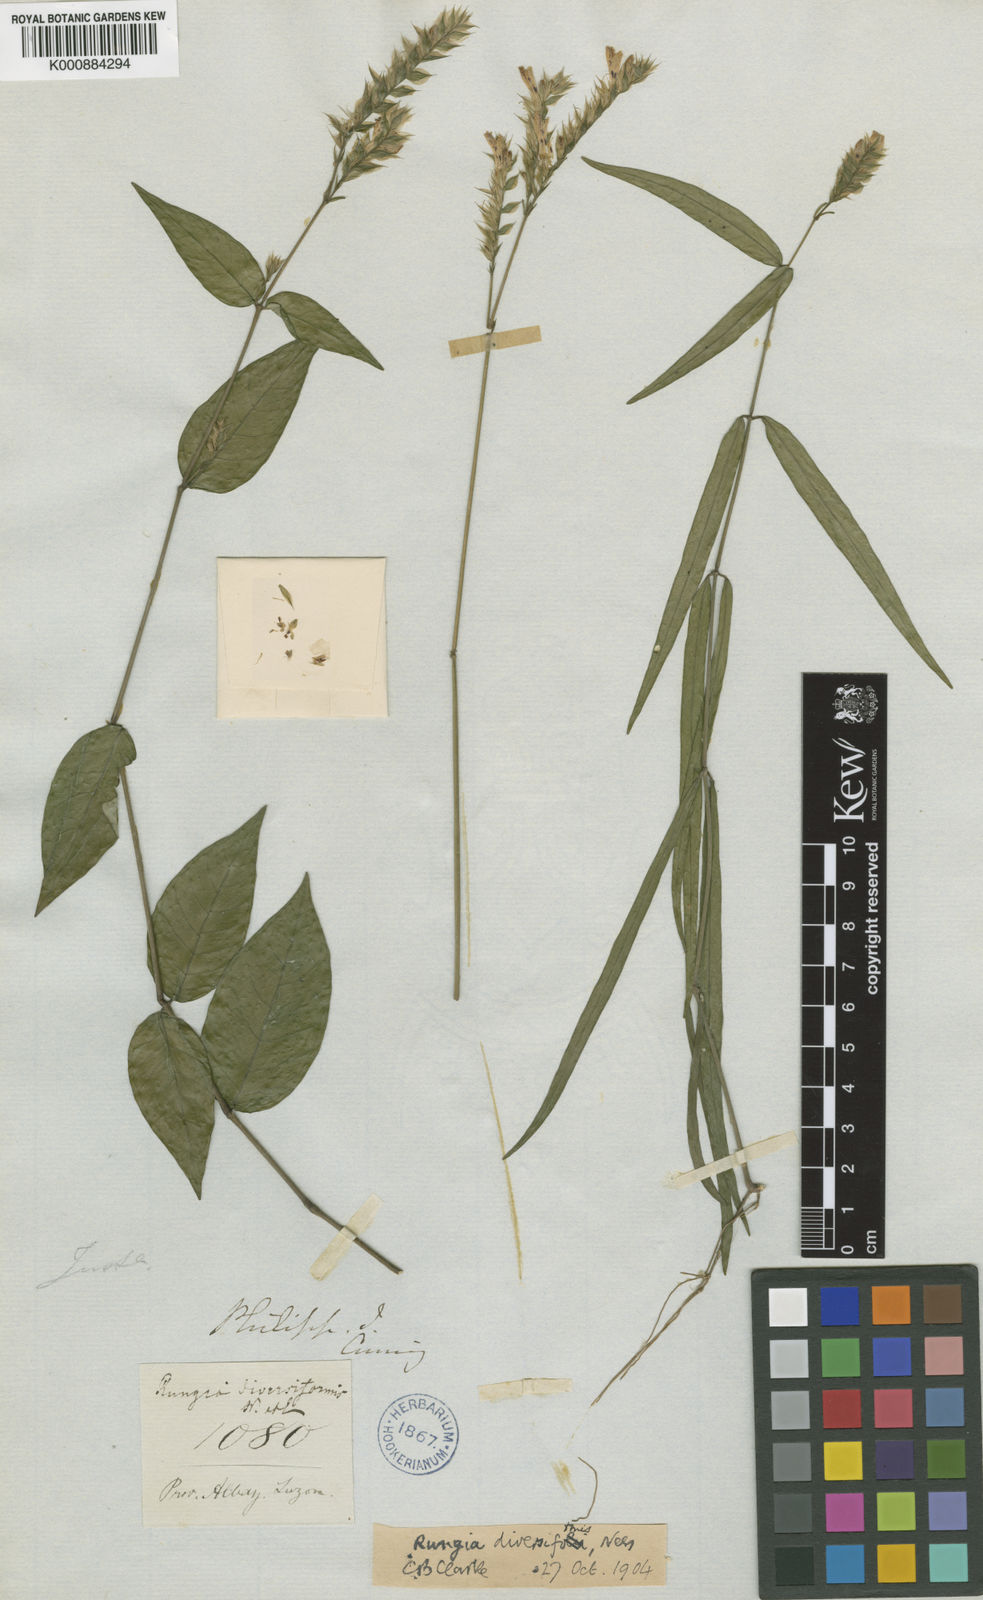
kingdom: Plantae
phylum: Tracheophyta
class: Magnoliopsida
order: Lamiales
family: Acanthaceae
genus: Justicia
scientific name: Justicia
